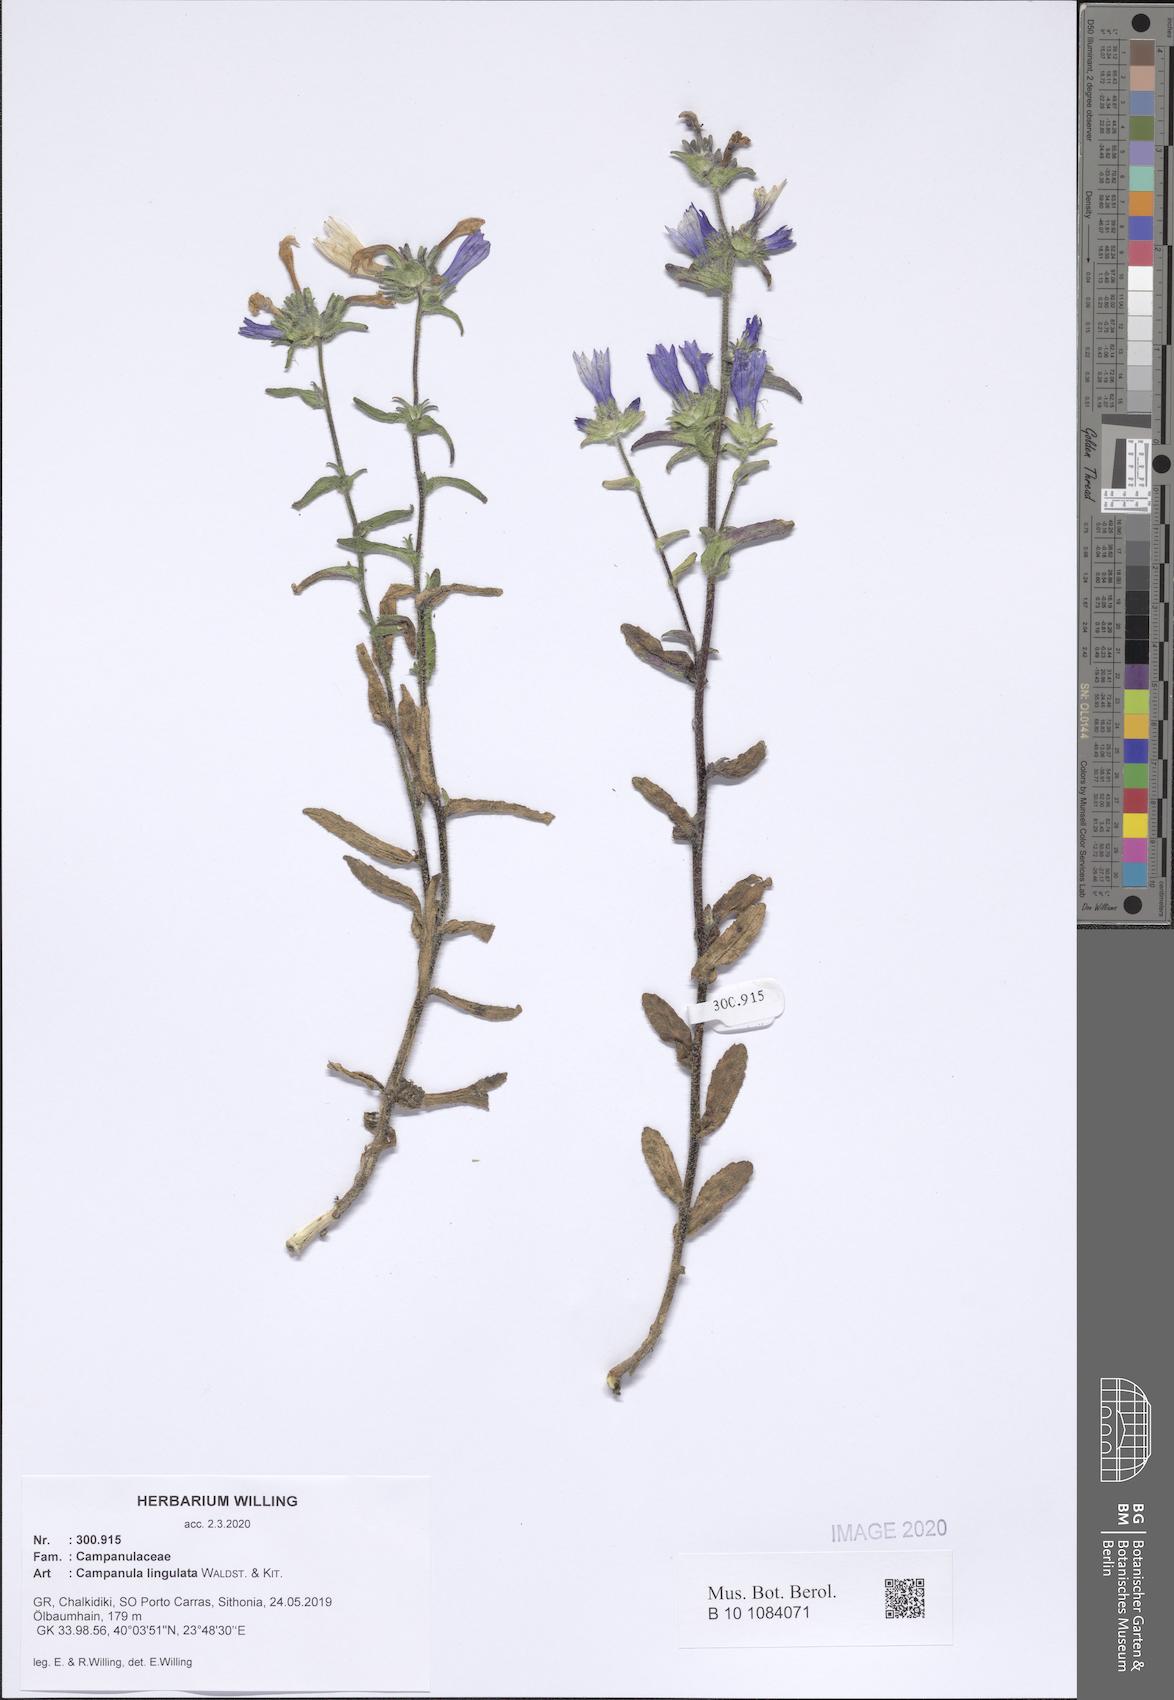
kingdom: Plantae
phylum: Tracheophyta
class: Magnoliopsida
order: Asterales
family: Campanulaceae
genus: Campanula
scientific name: Campanula lingulata
